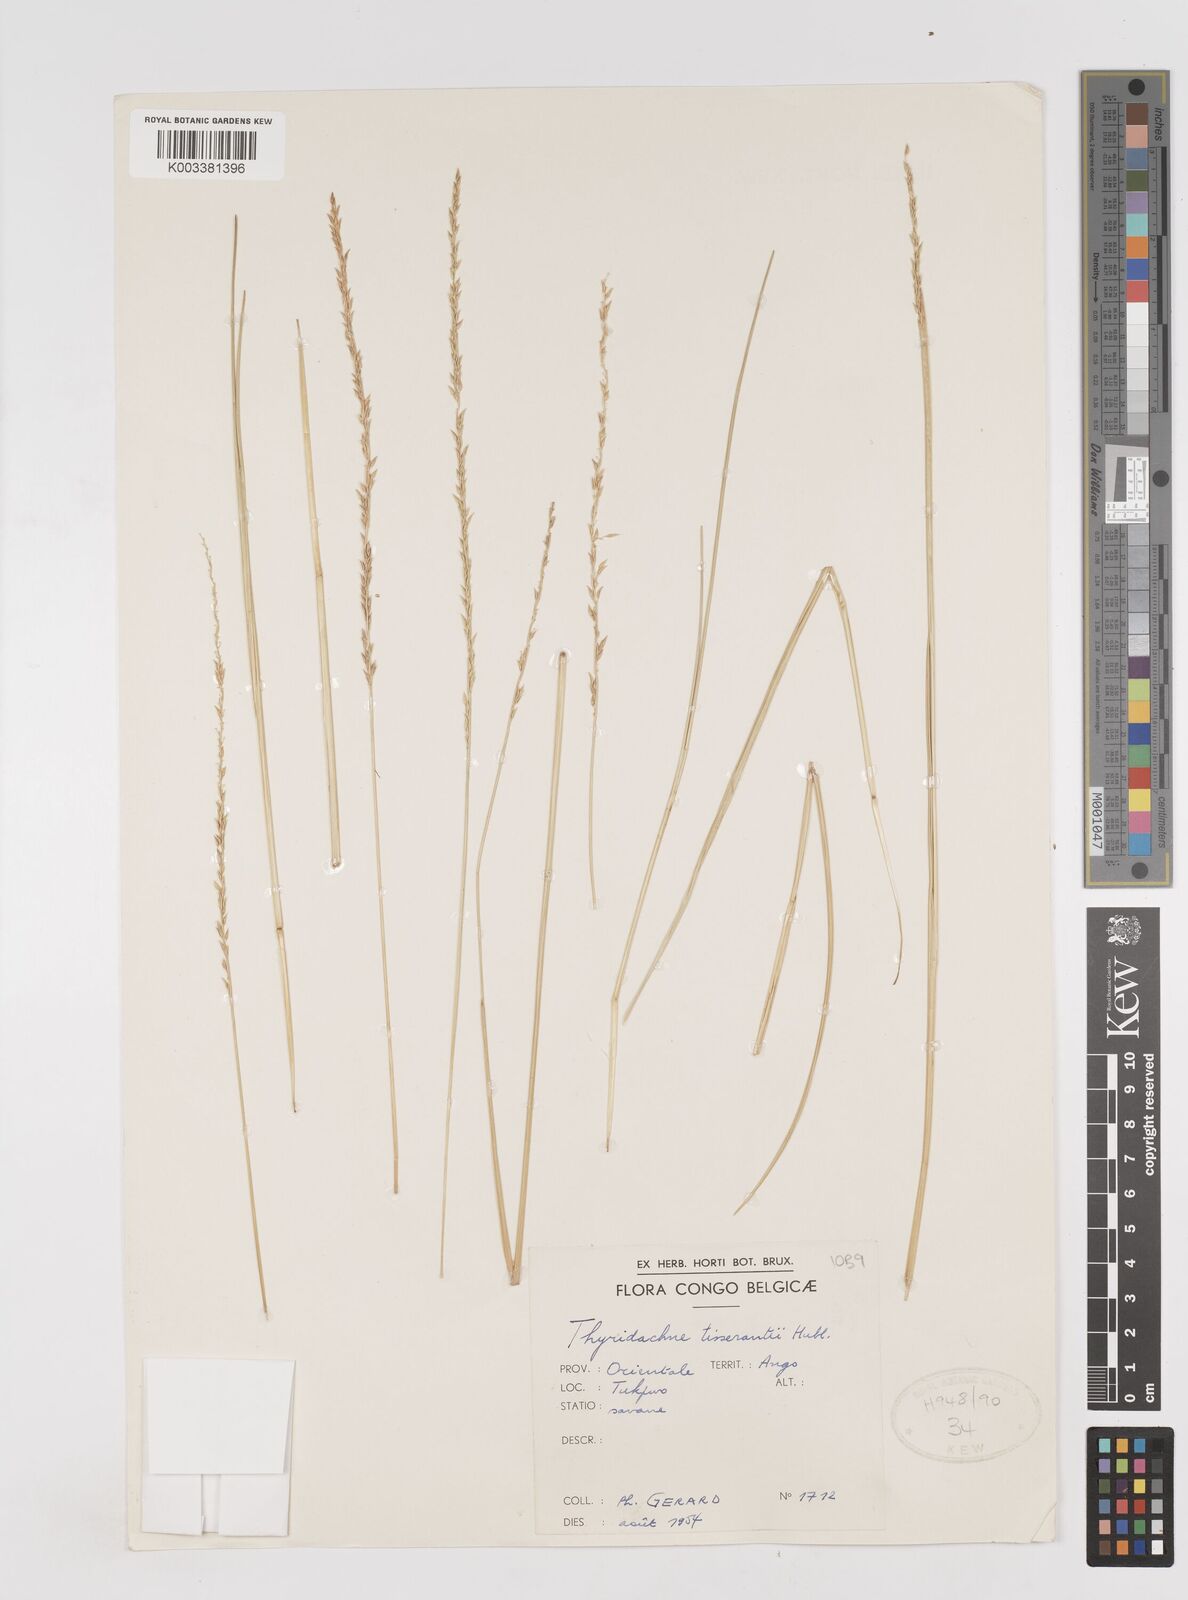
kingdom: Plantae
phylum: Tracheophyta
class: Liliopsida
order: Poales
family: Poaceae
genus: Thyridachne
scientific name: Thyridachne tisserantii
